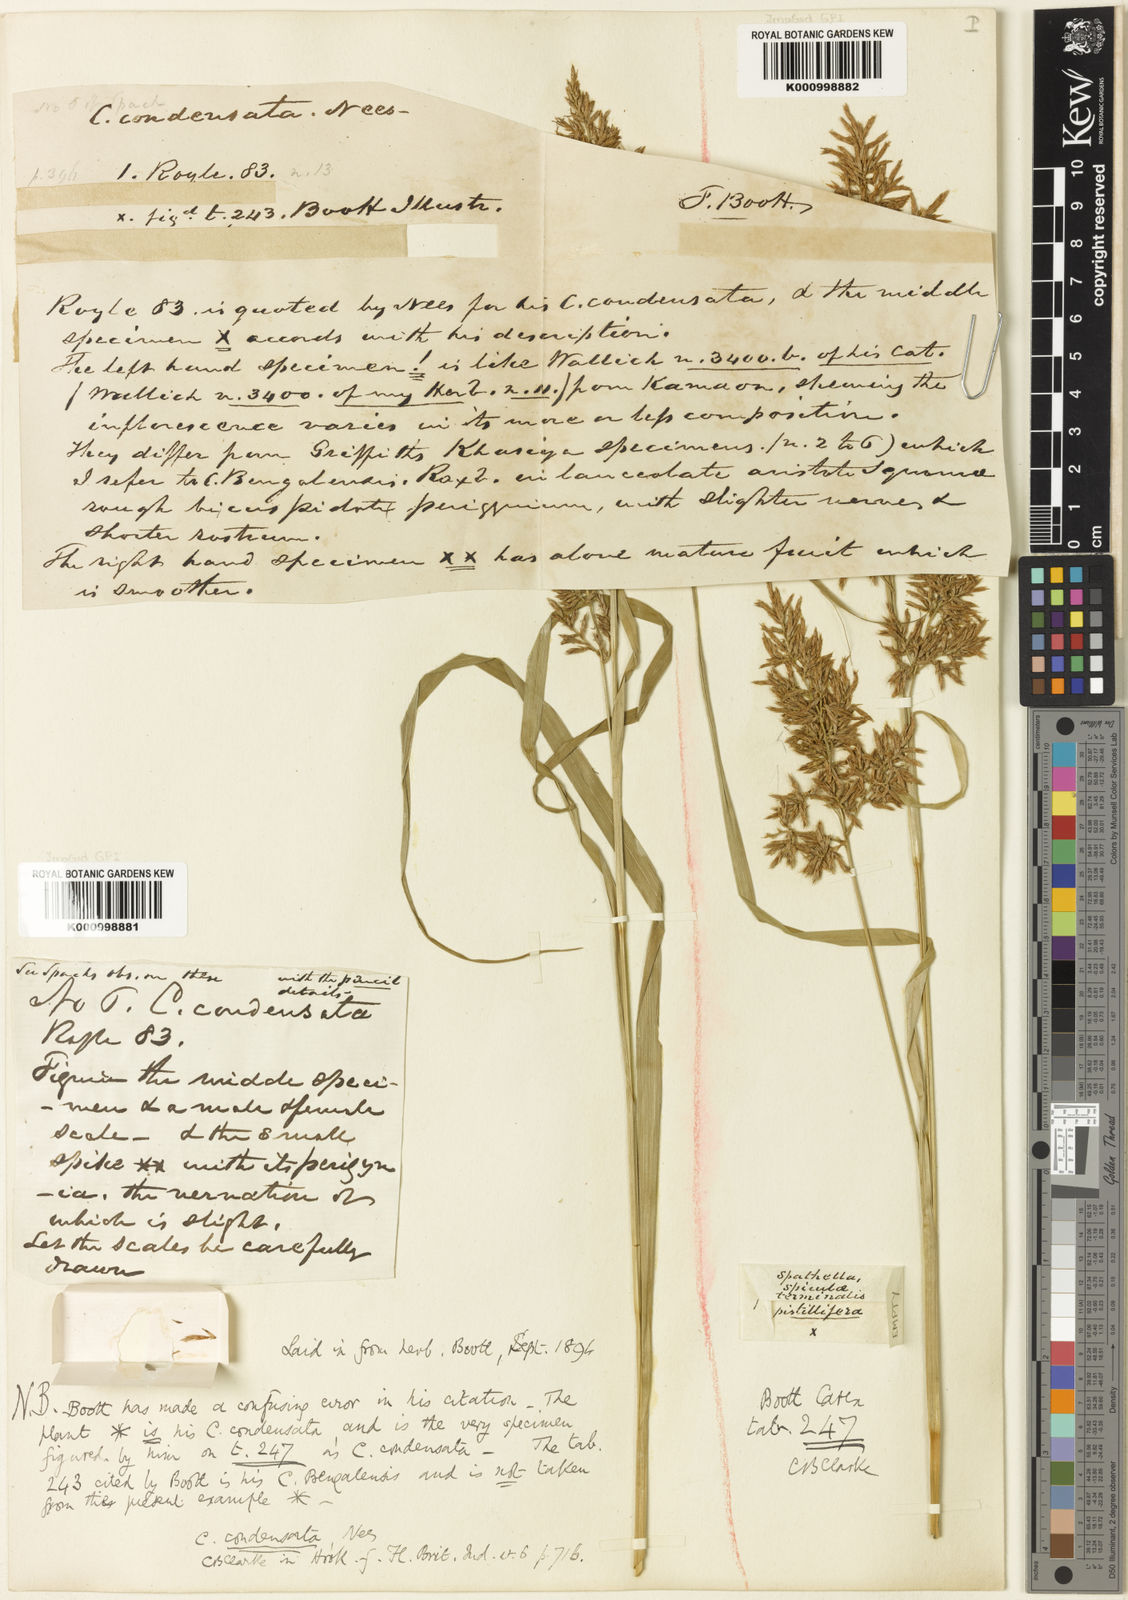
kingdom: Plantae
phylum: Tracheophyta
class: Liliopsida
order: Poales
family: Cyperaceae
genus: Carex
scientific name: Carex condensata
